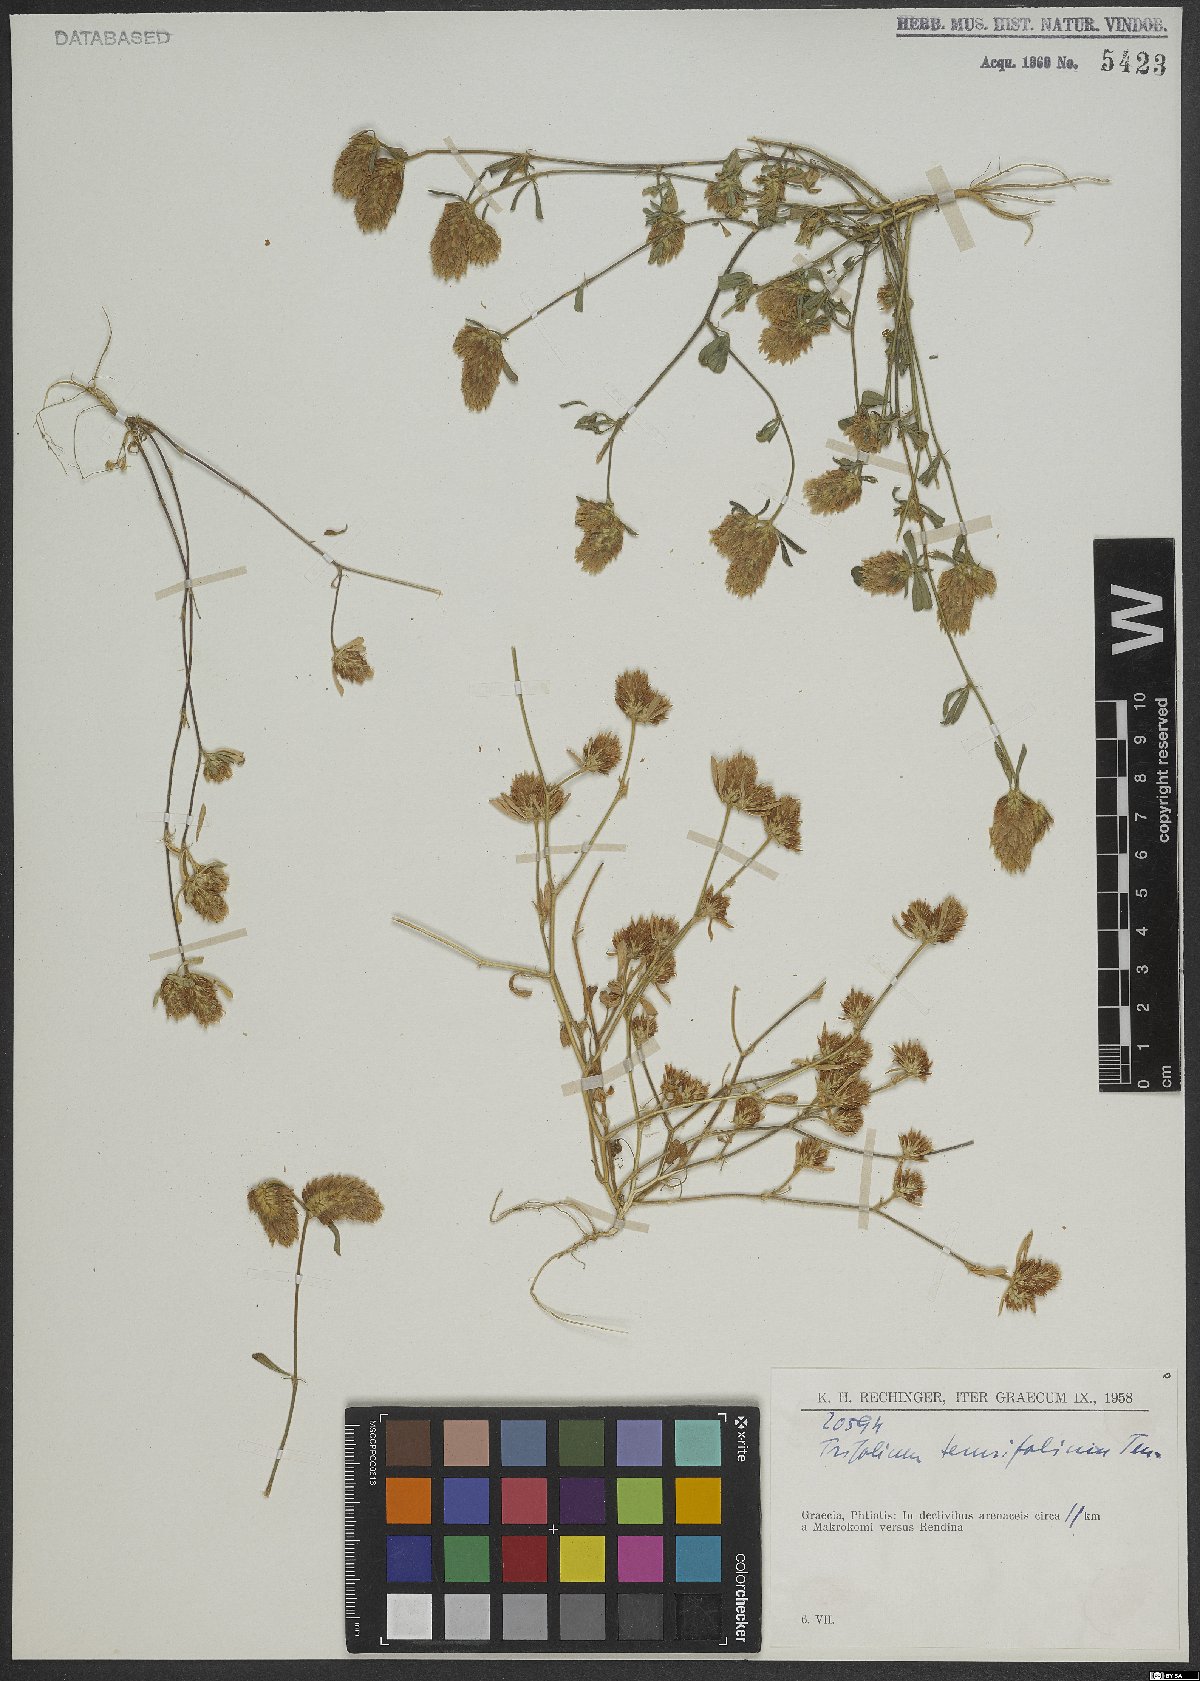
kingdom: Plantae
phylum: Tracheophyta
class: Magnoliopsida
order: Fabales
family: Fabaceae
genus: Trifolium
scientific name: Trifolium tenuifolium
